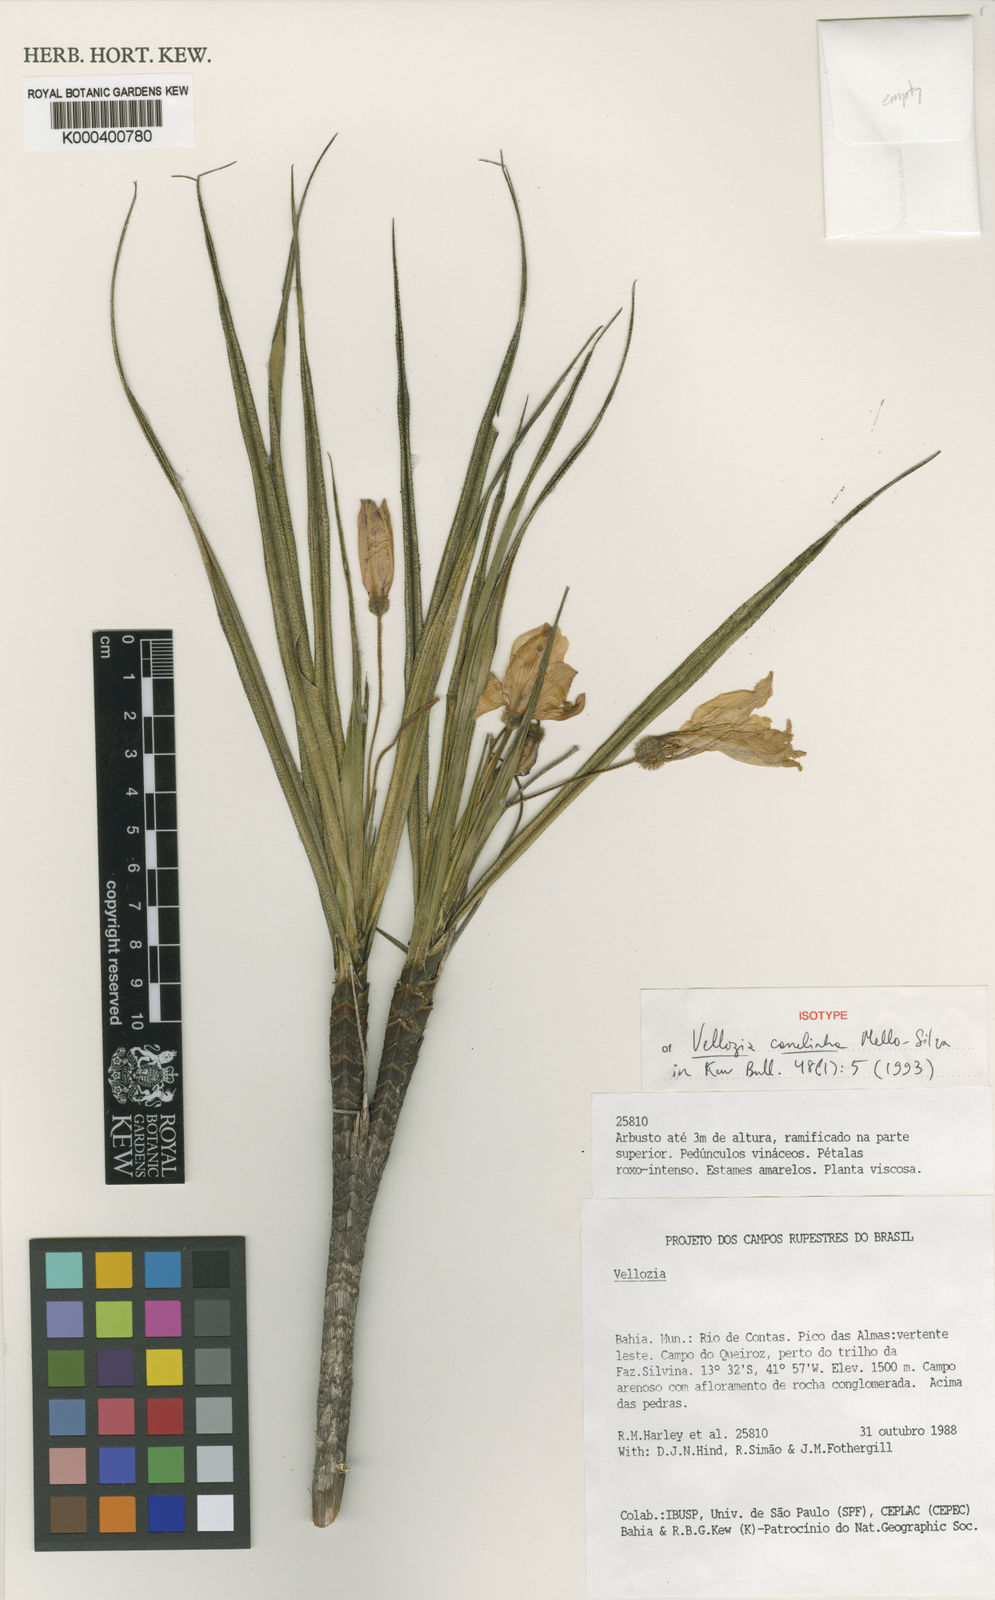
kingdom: Plantae
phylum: Tracheophyta
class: Liliopsida
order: Pandanales
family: Velloziaceae
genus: Vellozia
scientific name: Vellozia canelinha
